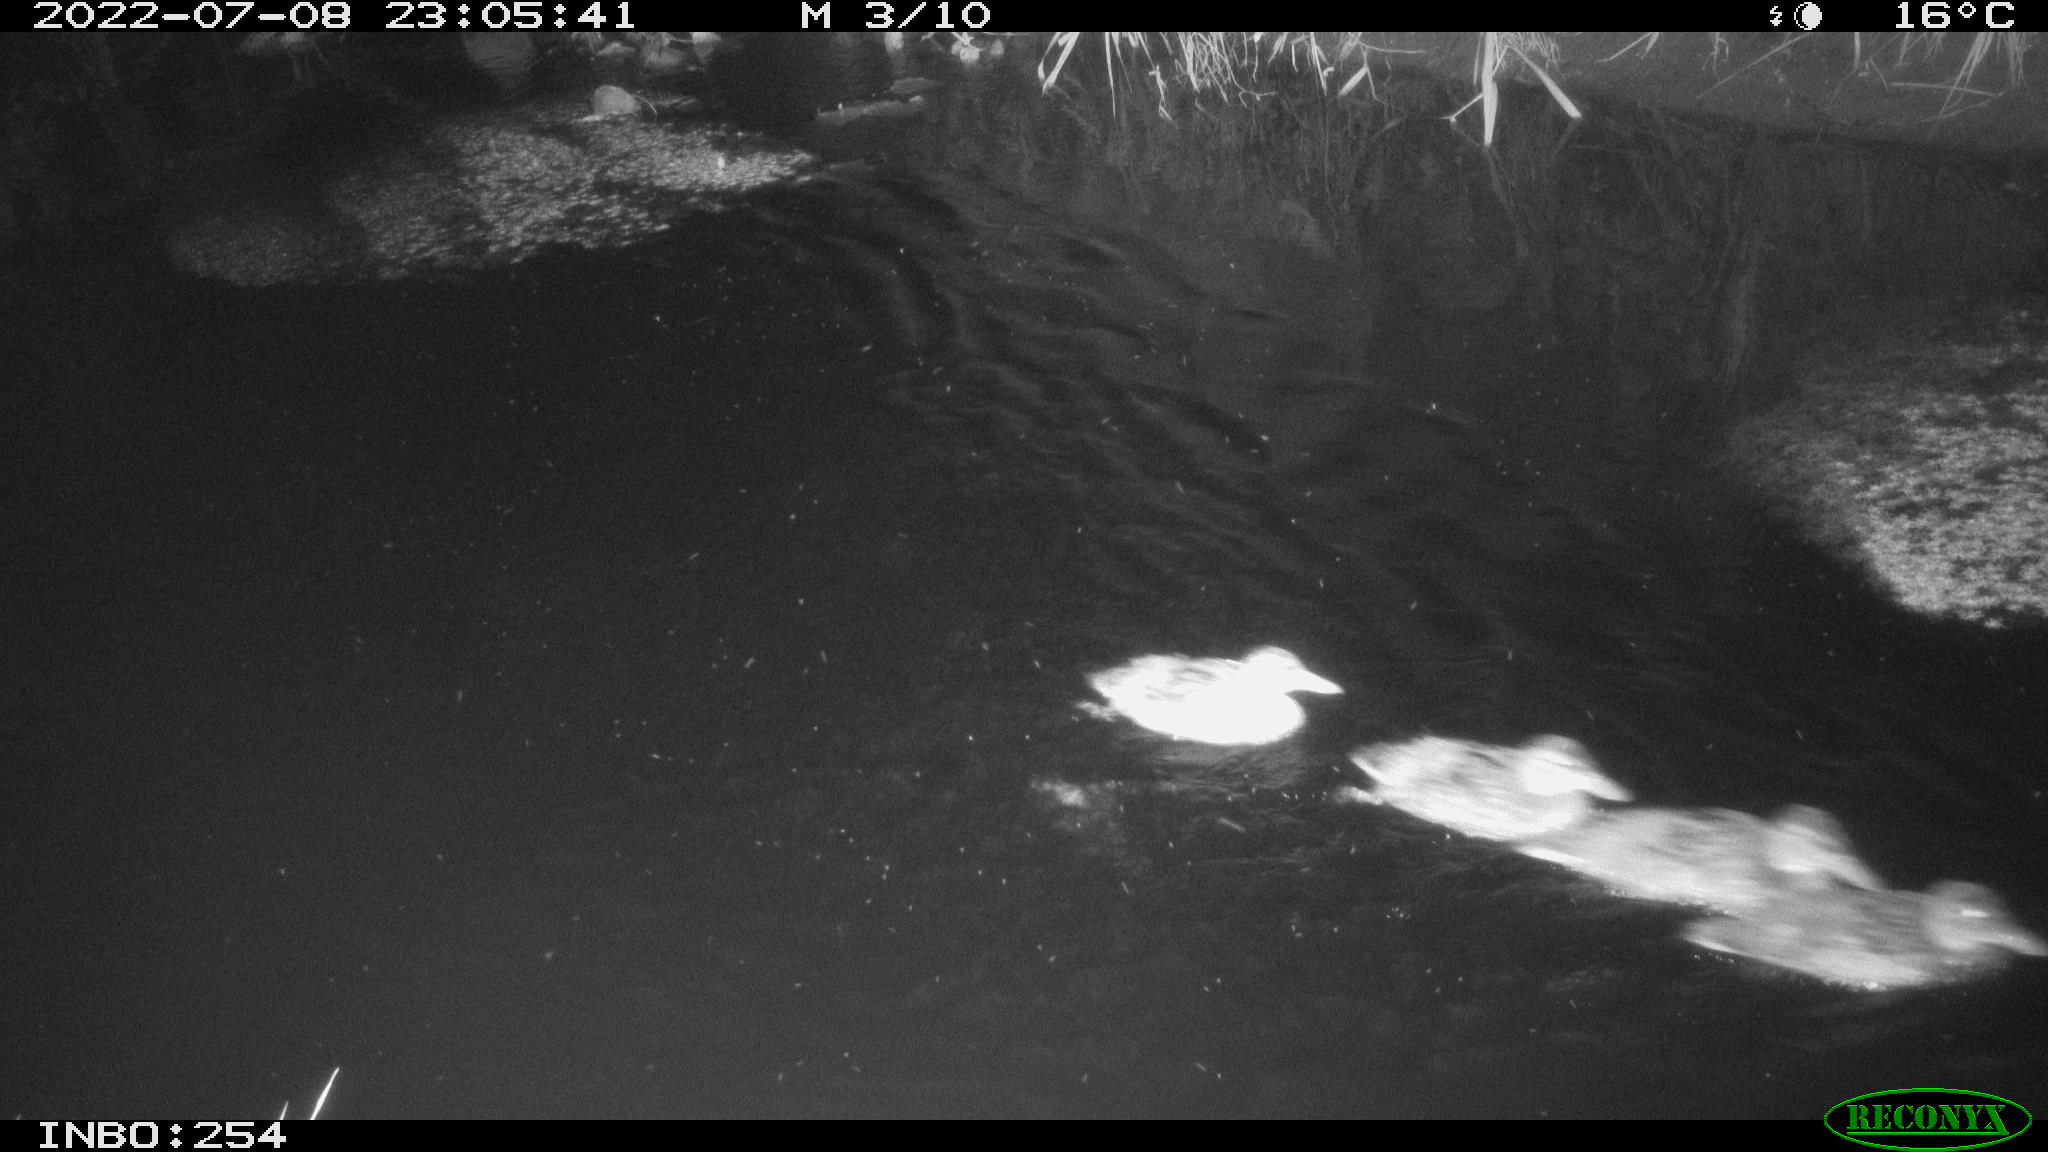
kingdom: Animalia
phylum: Chordata
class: Aves
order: Anseriformes
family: Anatidae
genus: Anas
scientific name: Anas platyrhynchos
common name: Mallard
